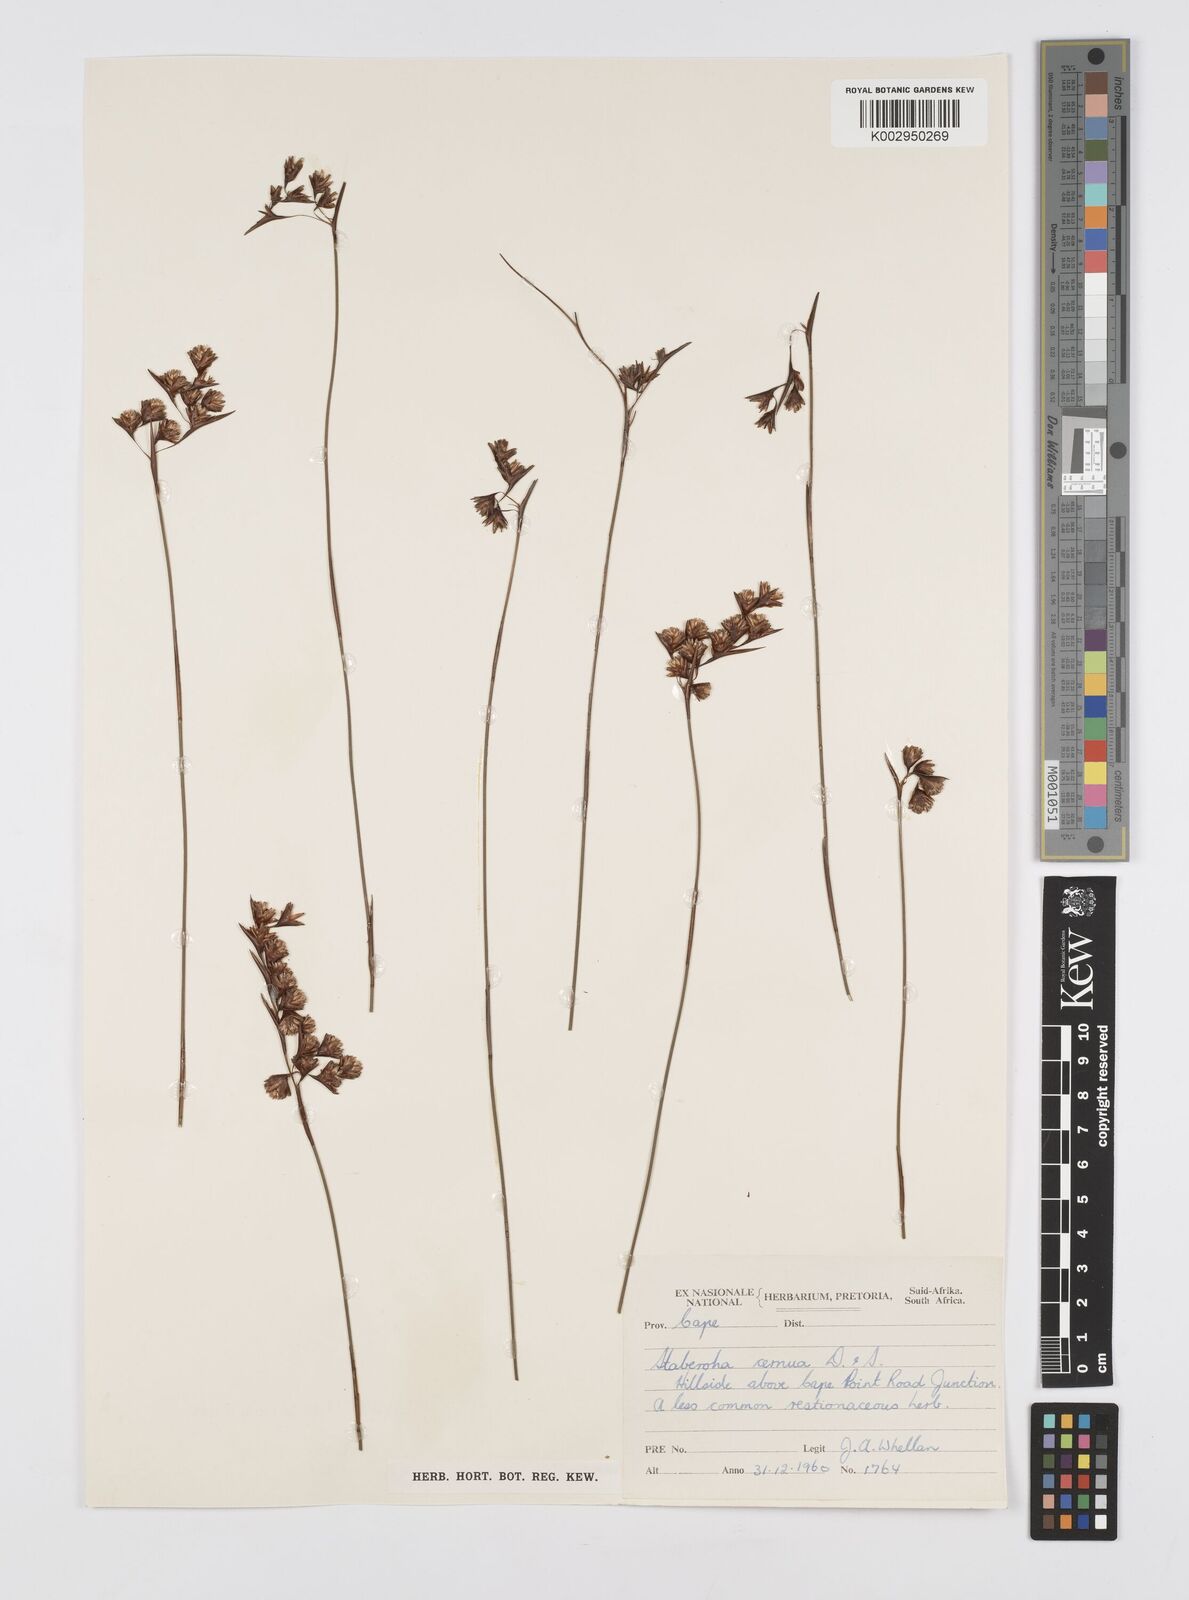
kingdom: Plantae
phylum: Tracheophyta
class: Liliopsida
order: Poales
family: Restionaceae
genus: Staberoha
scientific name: Staberoha cernua
